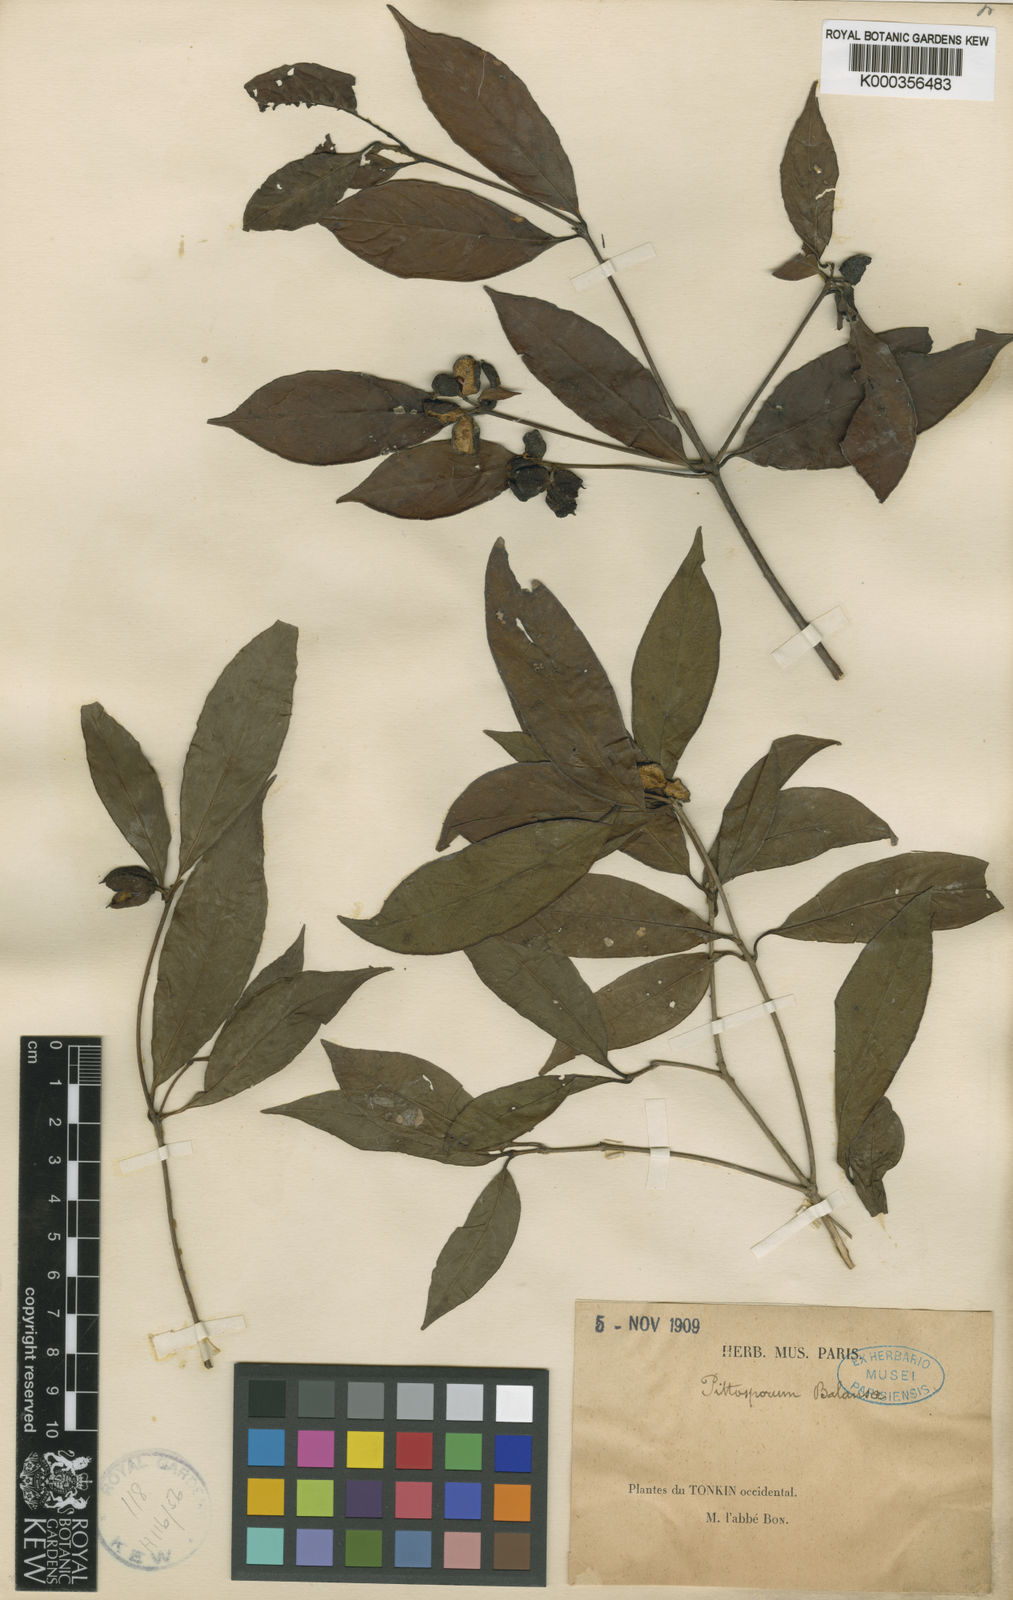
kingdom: Plantae
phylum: Tracheophyta
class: Magnoliopsida
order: Apiales
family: Pittosporaceae
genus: Pittosporum
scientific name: Pittosporum
